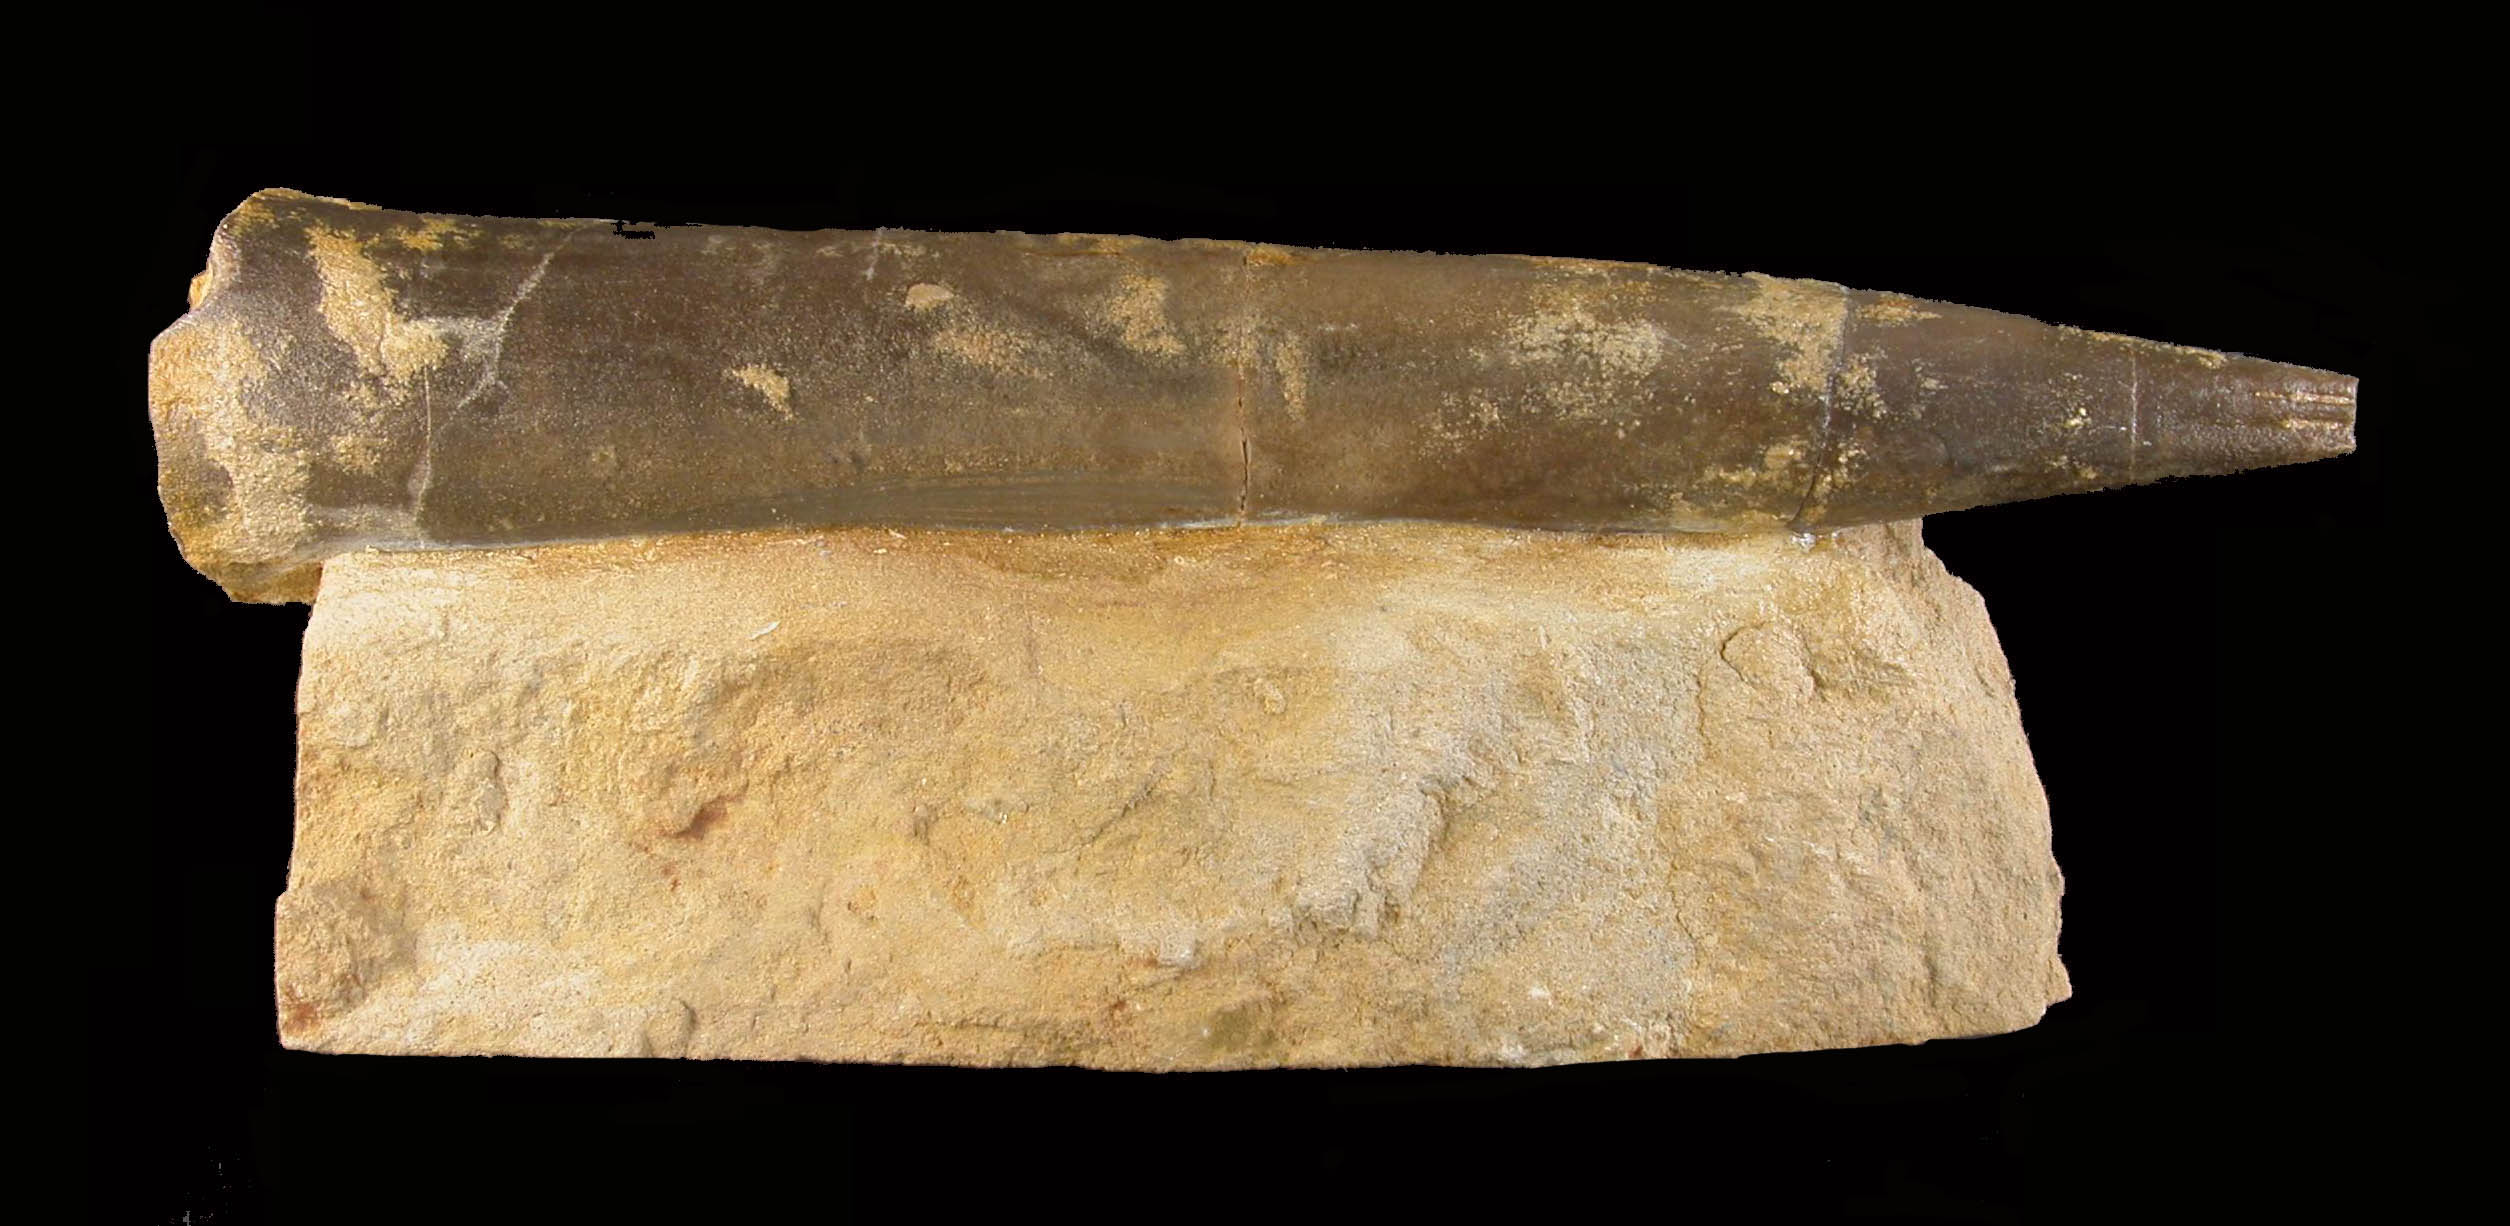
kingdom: Animalia
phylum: Mollusca
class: Cephalopoda
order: Belemnitida
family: Megateuthididae
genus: Megateuthis
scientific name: Megateuthis
